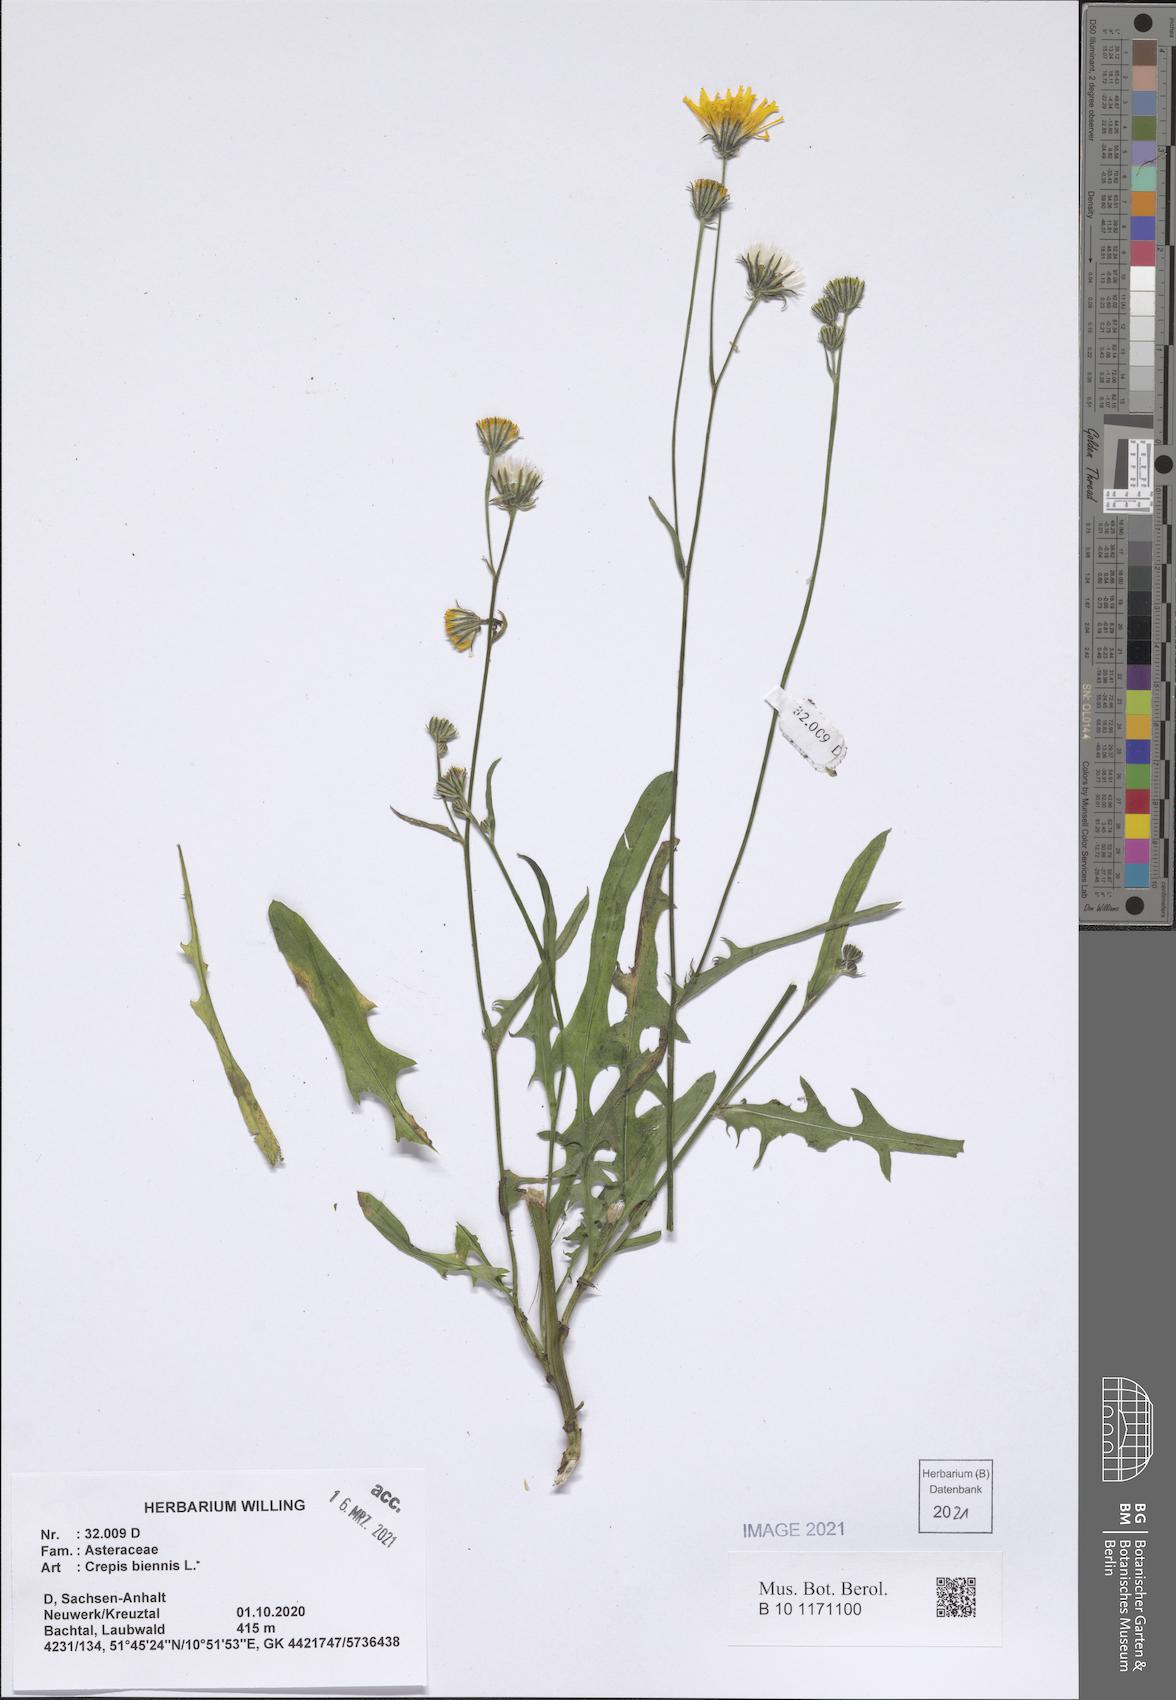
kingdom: Plantae
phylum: Tracheophyta
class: Magnoliopsida
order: Asterales
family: Asteraceae
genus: Crepis
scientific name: Crepis biennis
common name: Rough hawk's-beard
